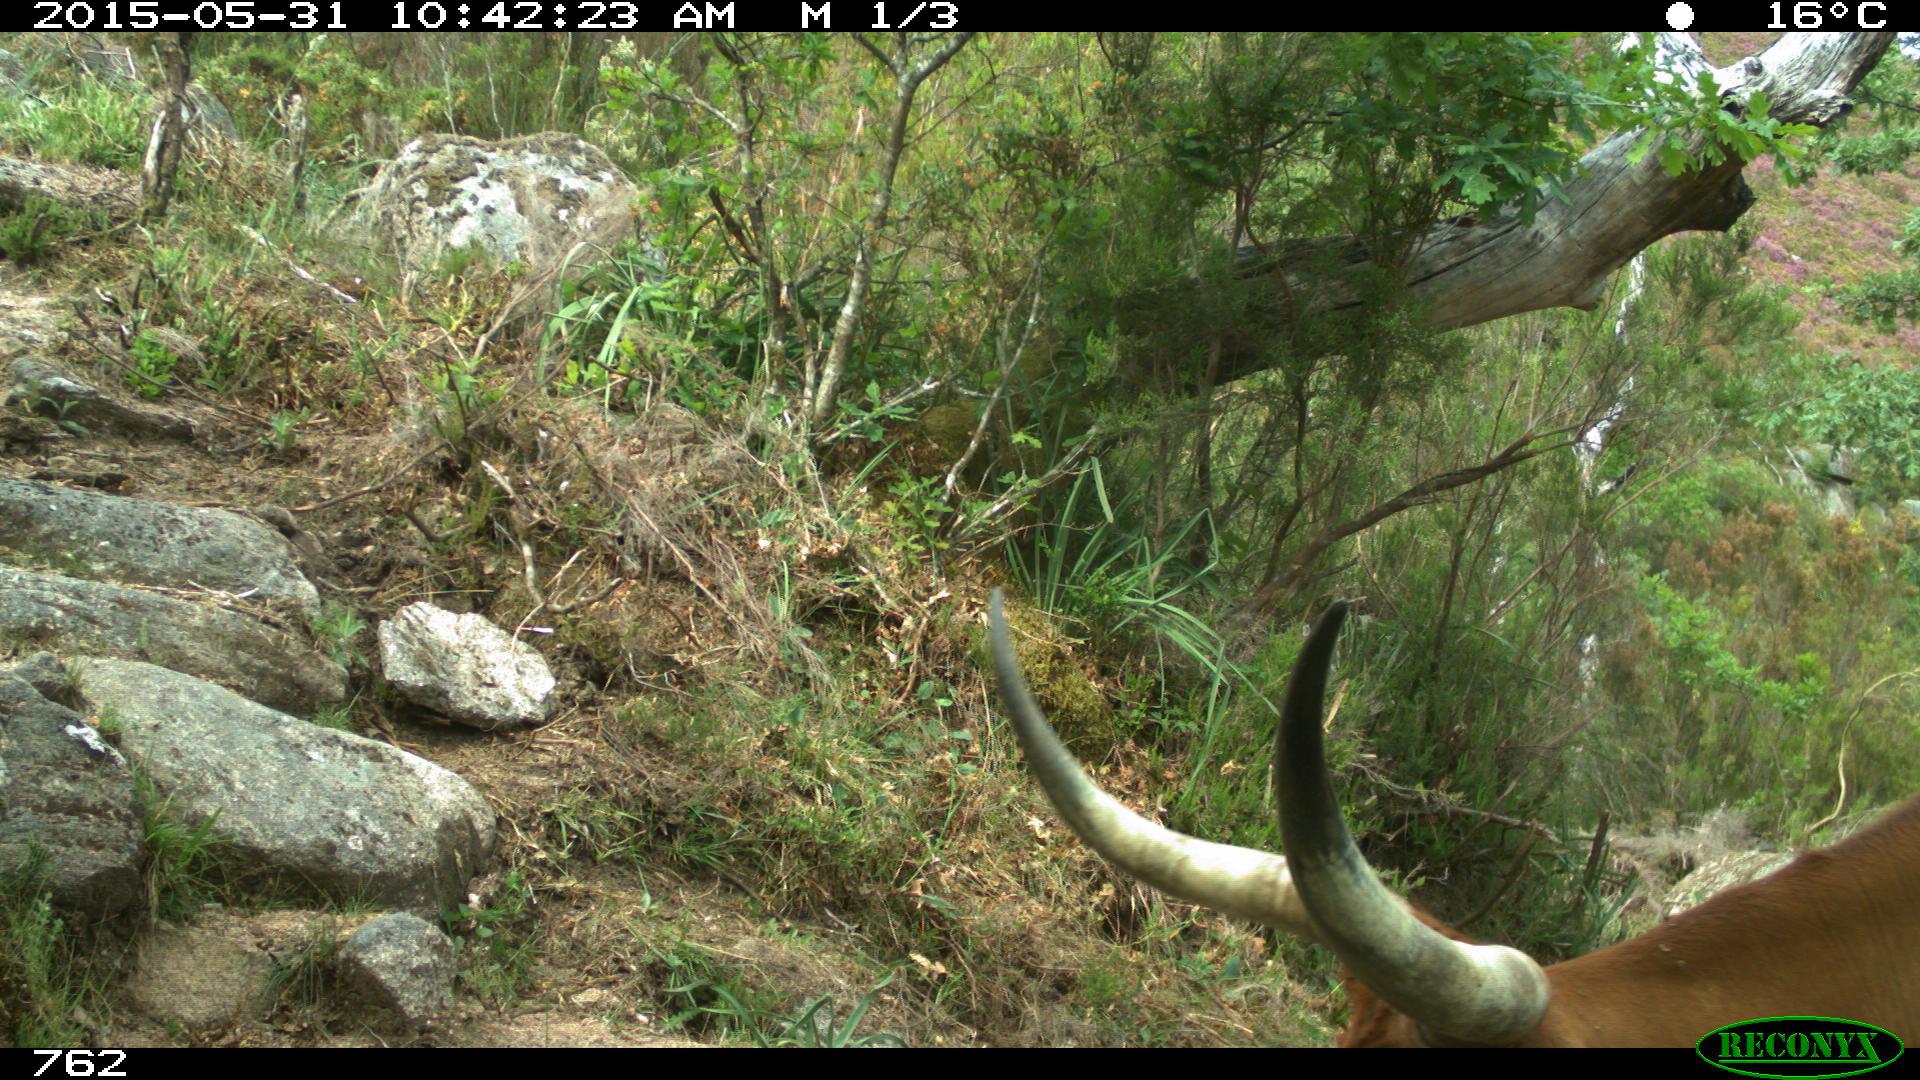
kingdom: Animalia
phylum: Chordata
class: Mammalia
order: Artiodactyla
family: Bovidae
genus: Bos
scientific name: Bos taurus
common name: Domesticated cattle
